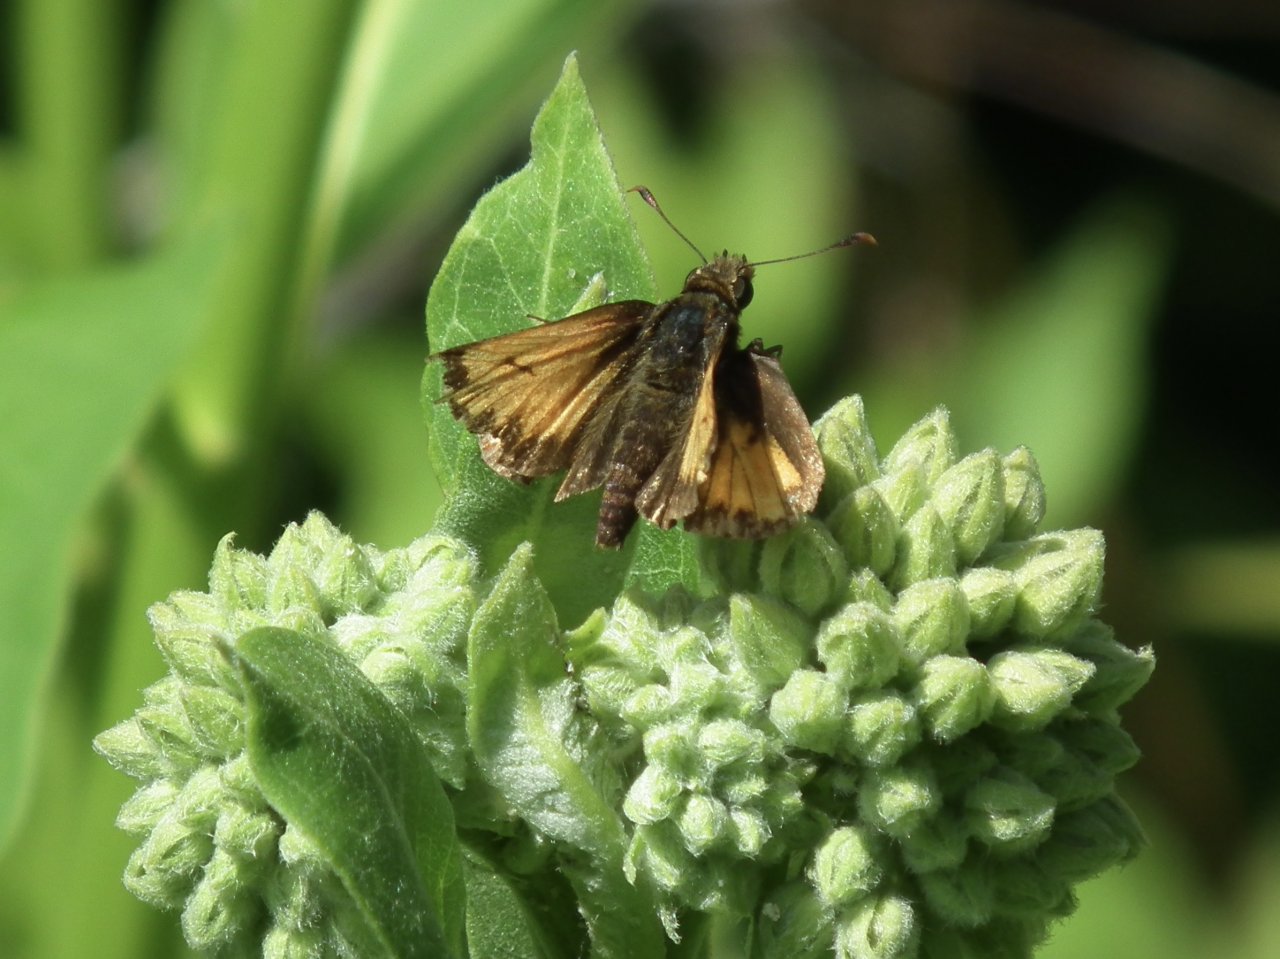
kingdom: Animalia
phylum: Arthropoda
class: Insecta
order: Lepidoptera
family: Hesperiidae
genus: Lon
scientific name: Lon hobomok
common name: Hobomok Skipper
